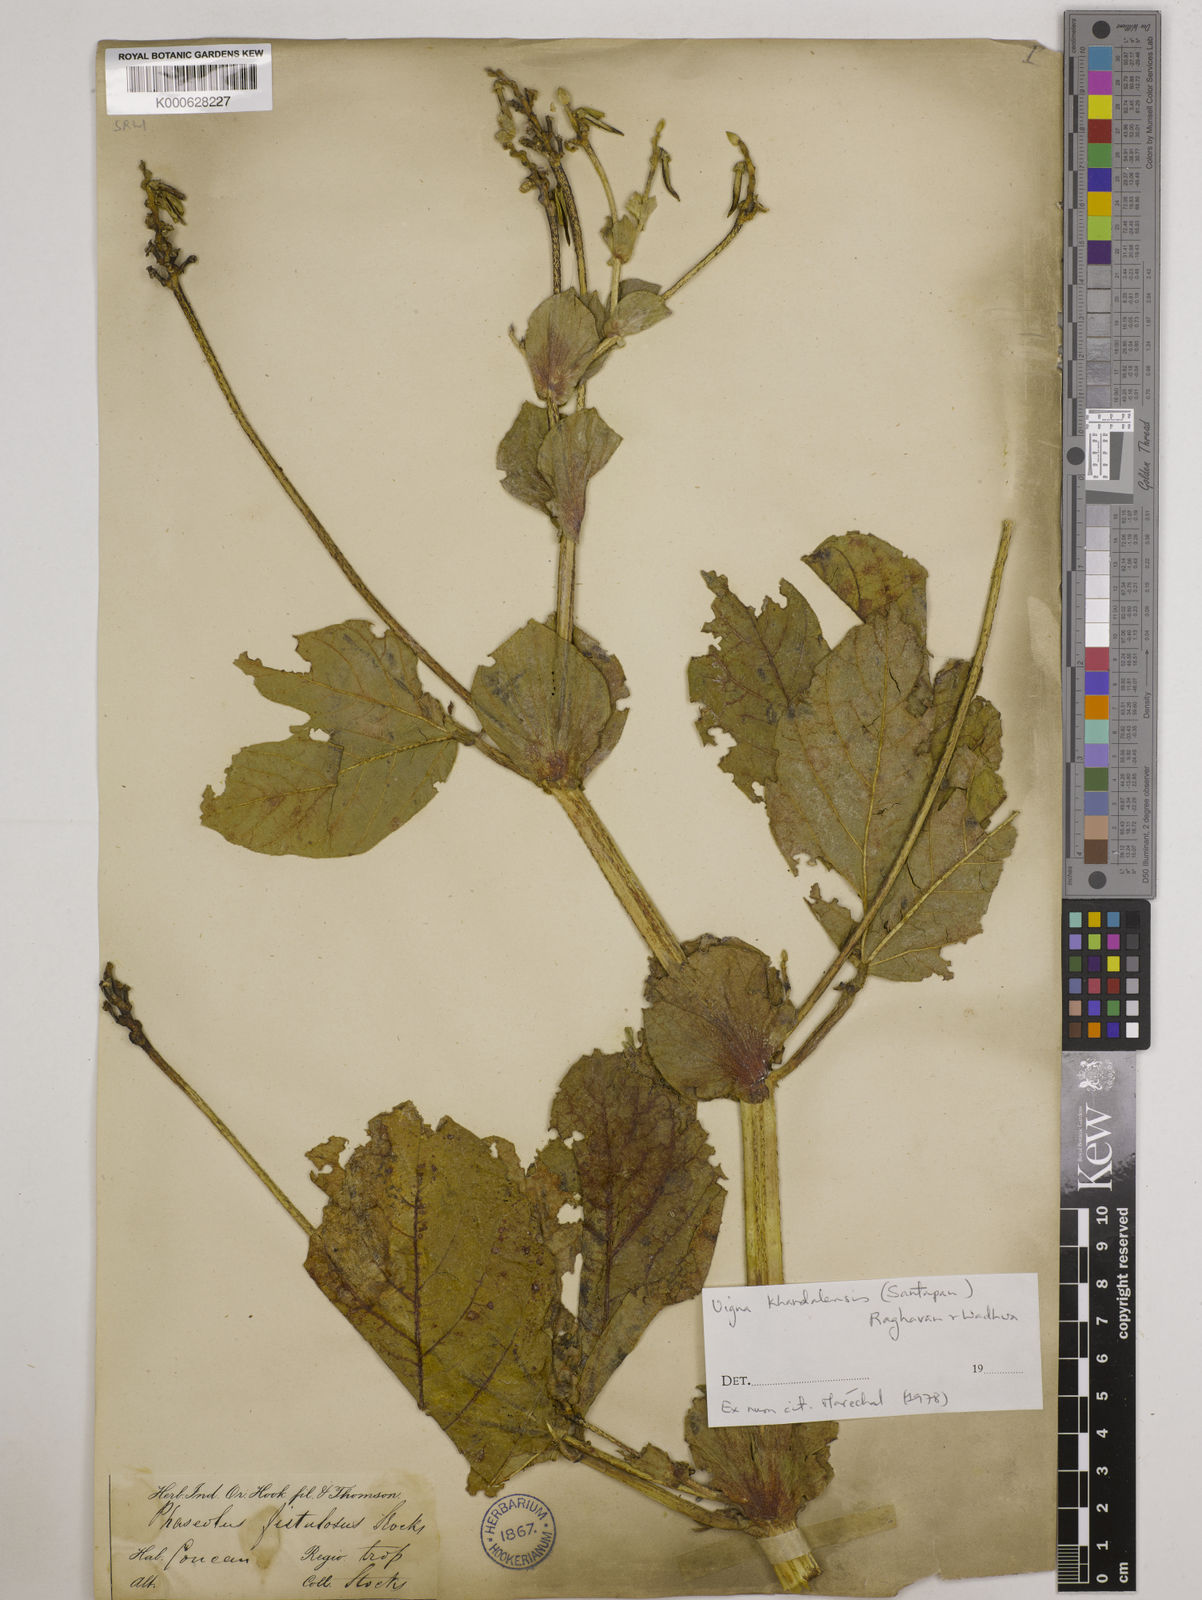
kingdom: Plantae
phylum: Tracheophyta
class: Magnoliopsida
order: Fabales
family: Fabaceae
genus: Vigna
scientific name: Vigna khandalensis
